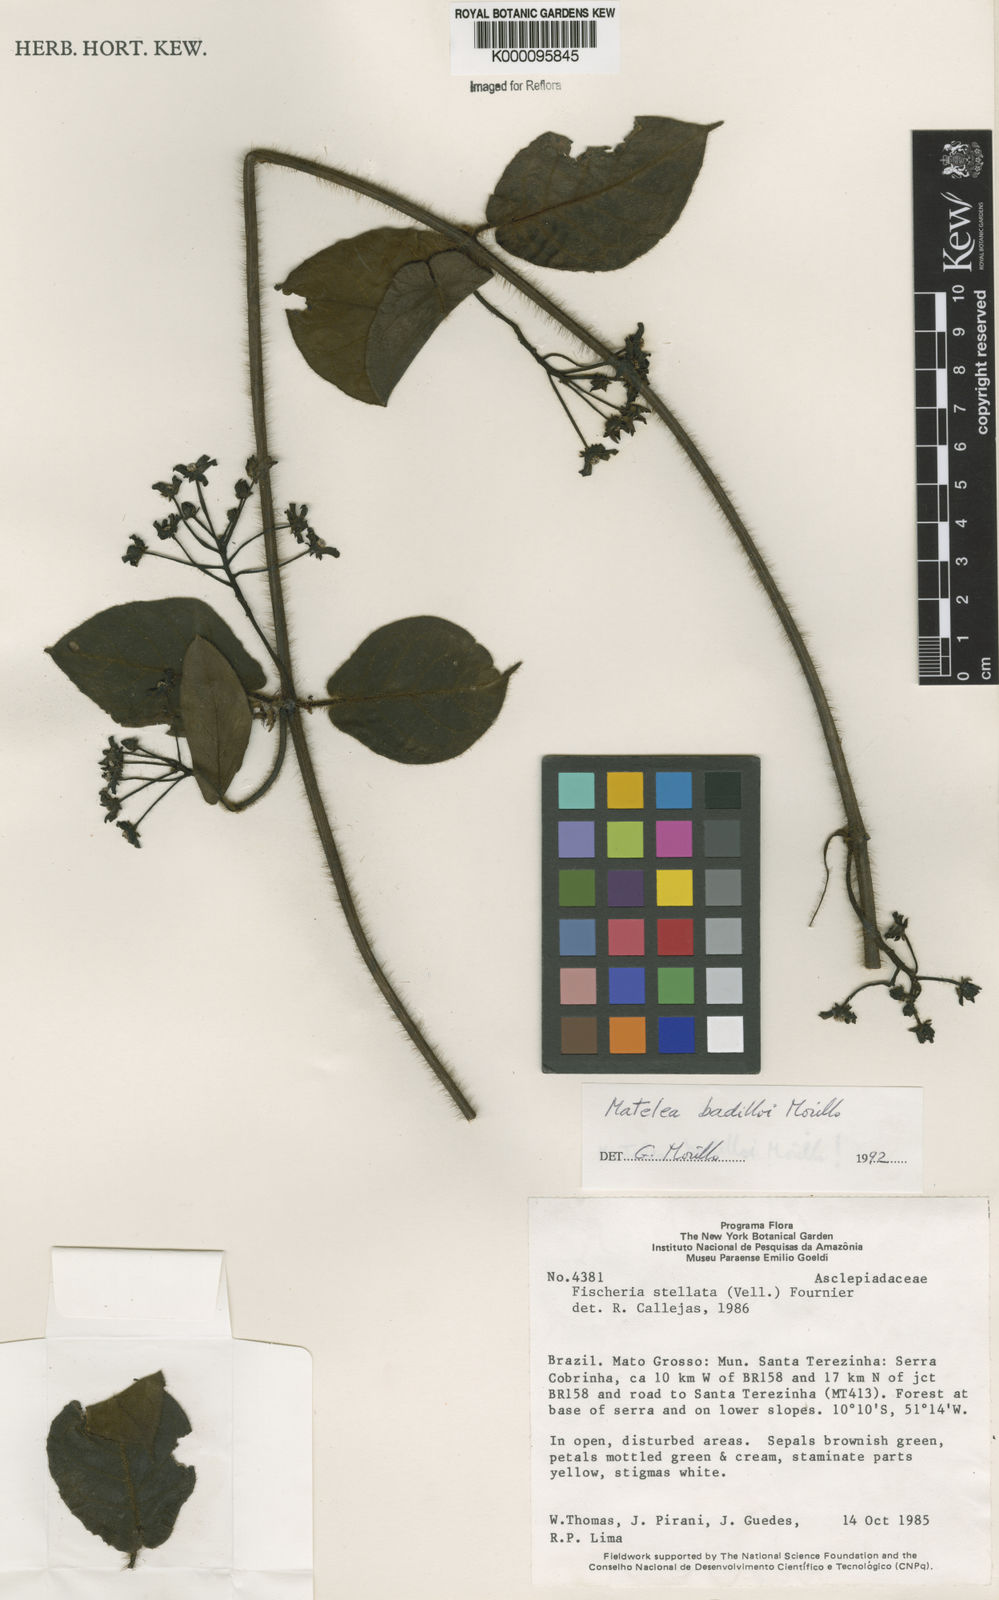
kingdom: Plantae
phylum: Tracheophyta
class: Magnoliopsida
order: Gentianales
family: Apocynaceae
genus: Rhytidostemma
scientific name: Rhytidostemma badilloi
